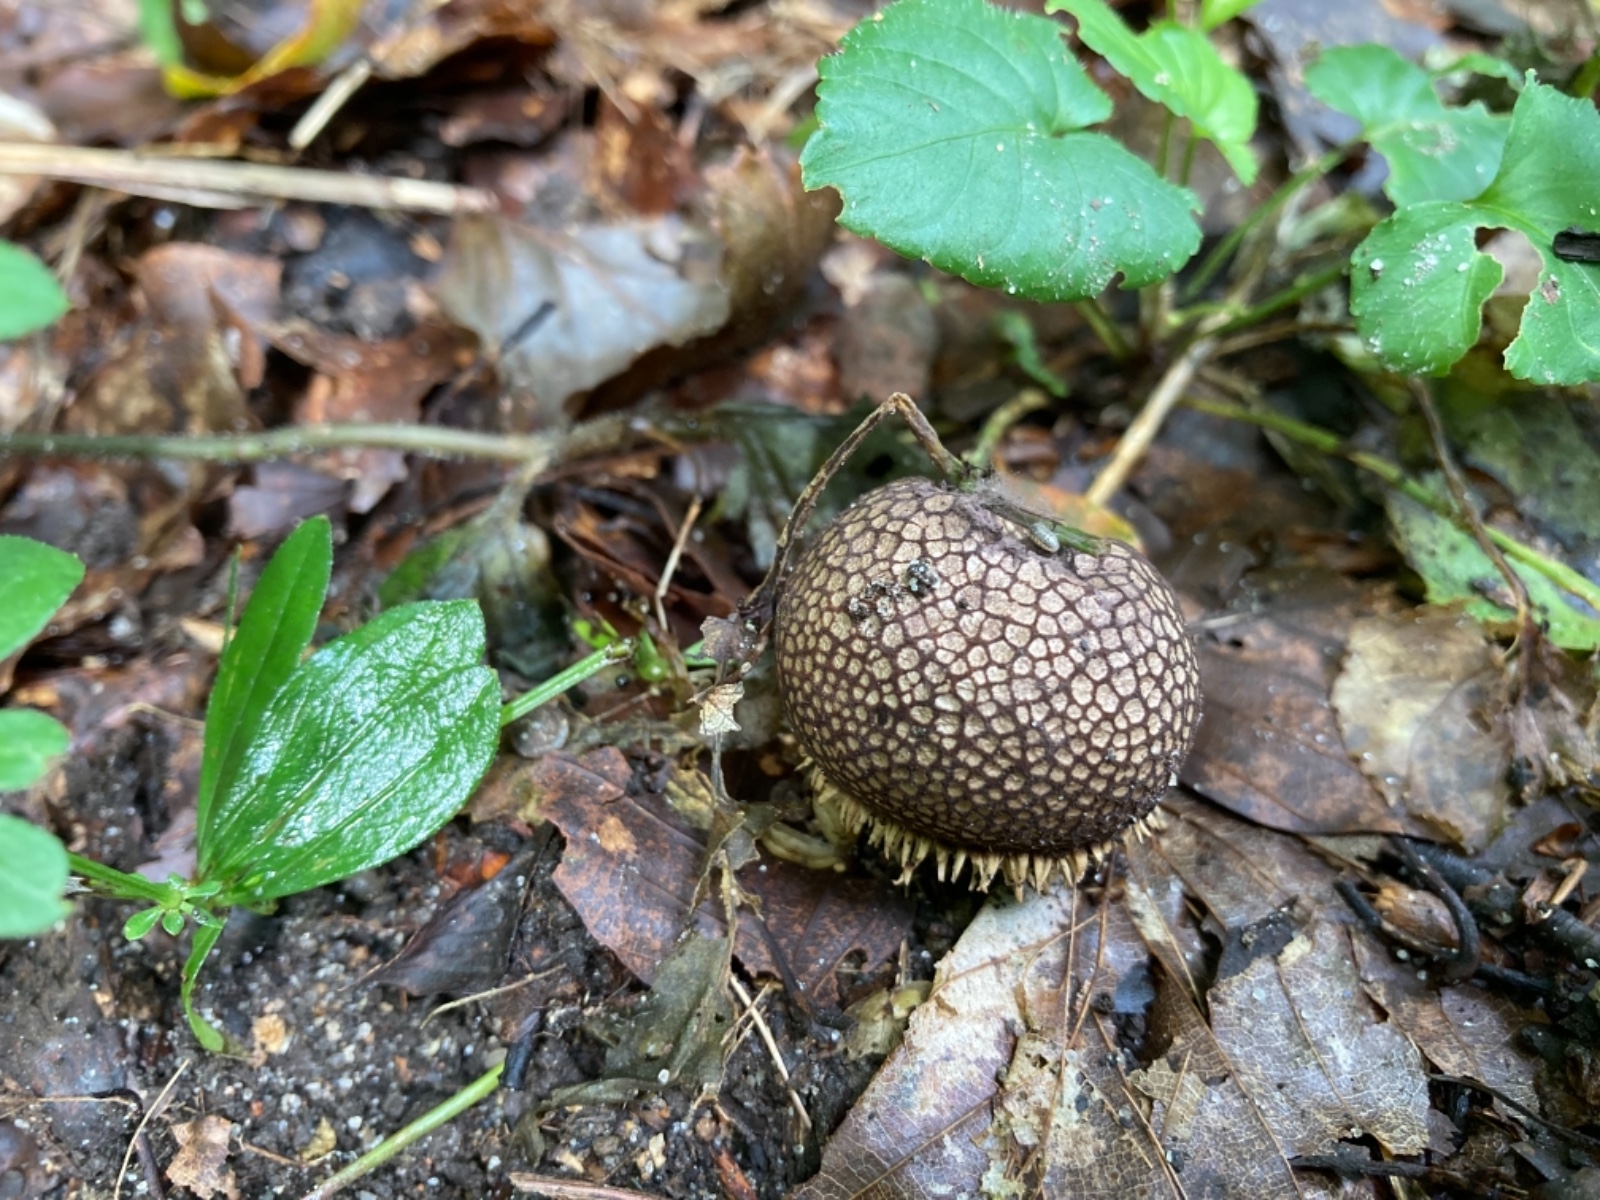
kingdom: Fungi
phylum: Basidiomycota
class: Agaricomycetes
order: Agaricales
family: Lycoperdaceae
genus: Lycoperdon
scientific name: Lycoperdon echinatum
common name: pindsvine-støvbold
